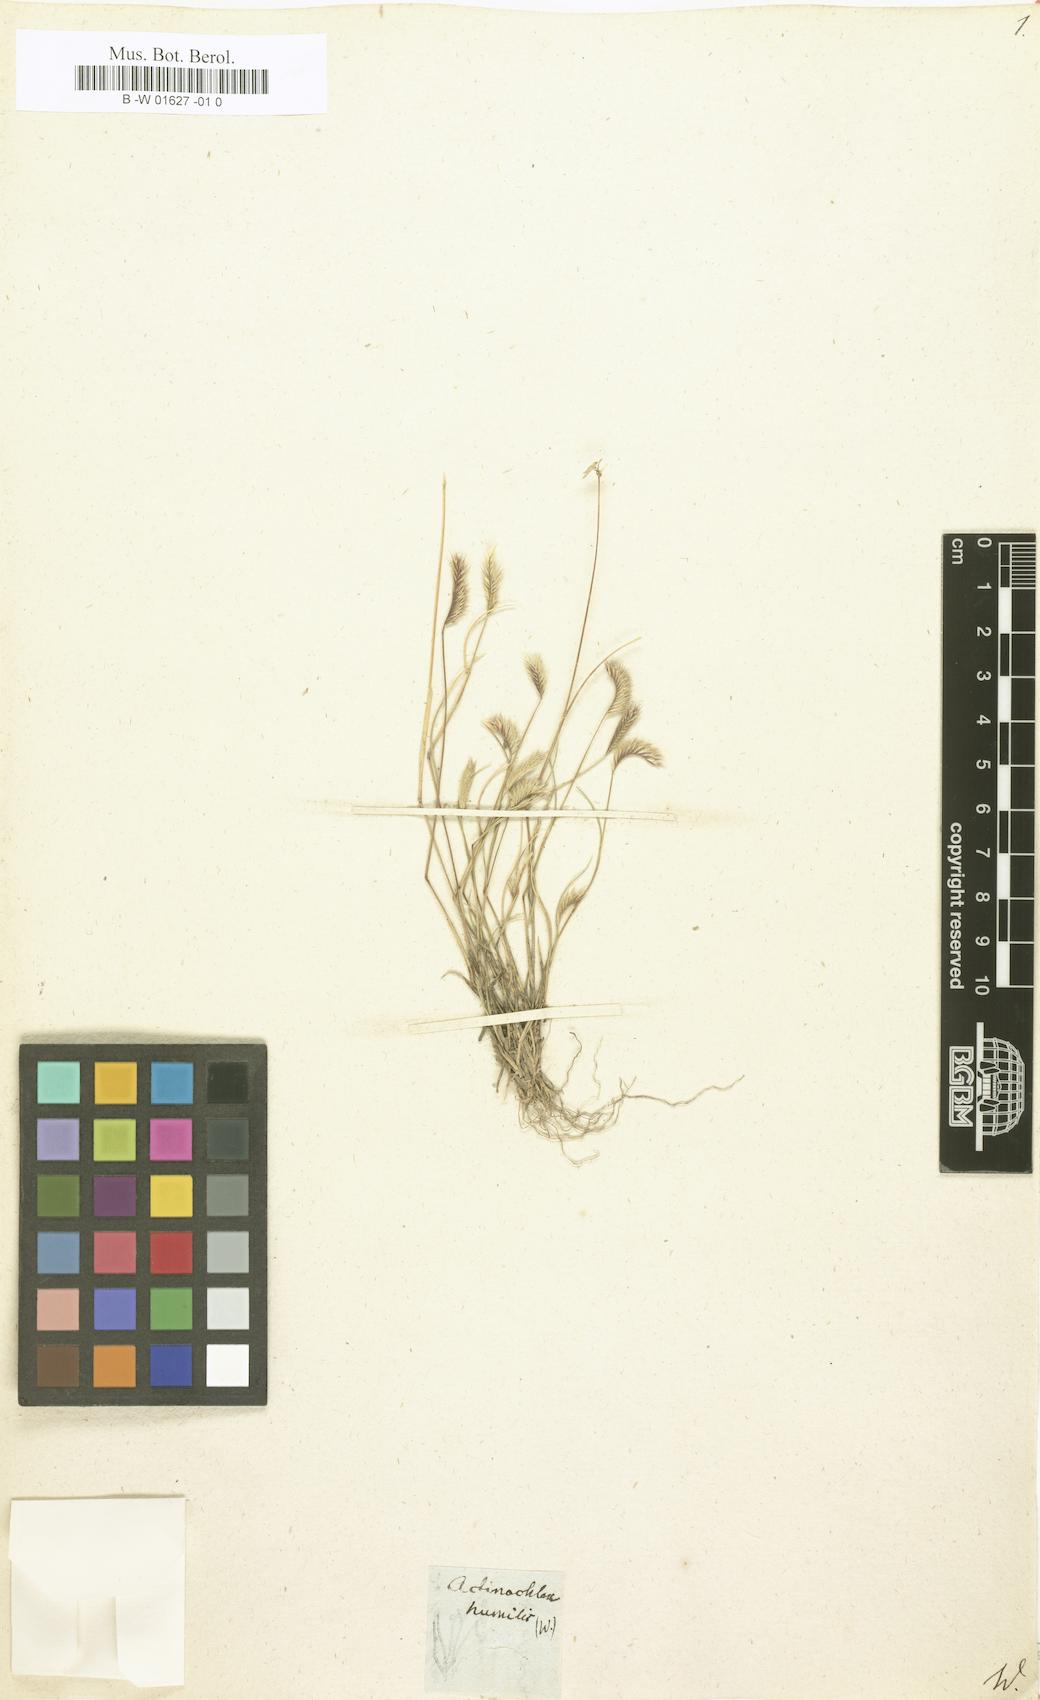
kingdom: Plantae
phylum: Tracheophyta
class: Liliopsida
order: Poales
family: Poaceae
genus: Bouteloua
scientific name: Bouteloua simplex
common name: Mat grama
